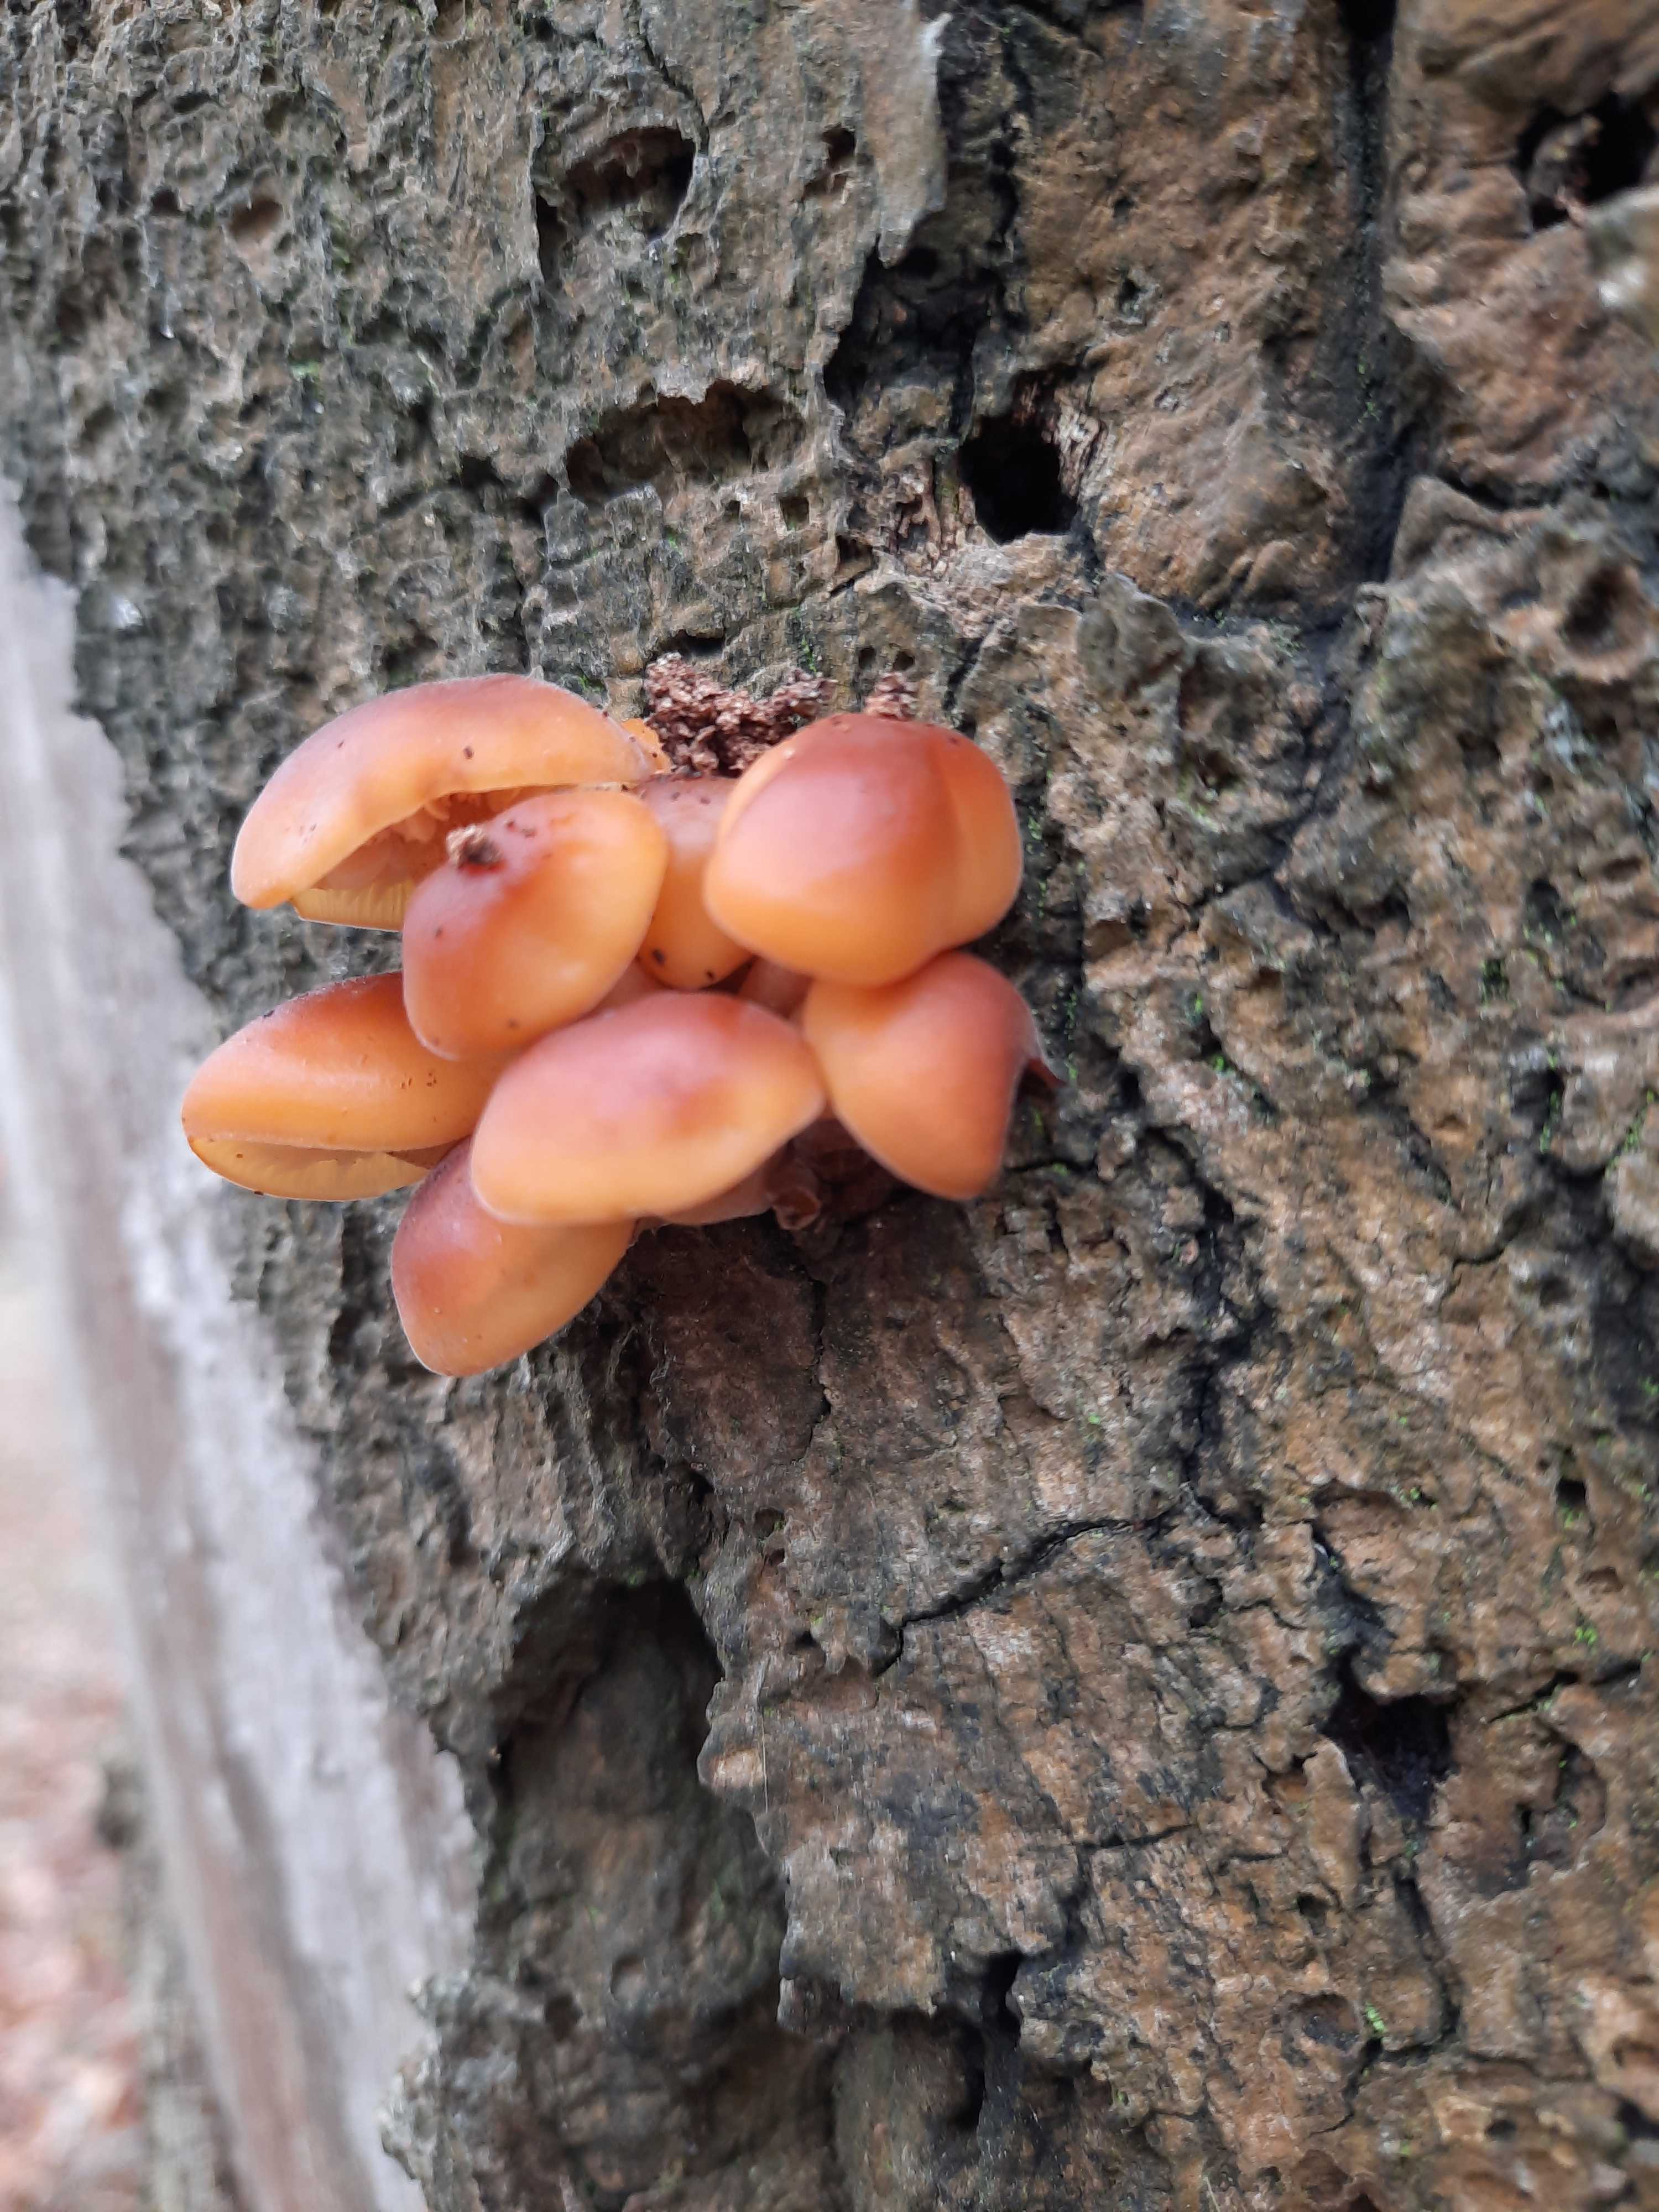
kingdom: Fungi
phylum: Basidiomycota
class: Agaricomycetes
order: Agaricales
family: Physalacriaceae
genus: Flammulina
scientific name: Flammulina velutipes
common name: gul fløjlsfod
